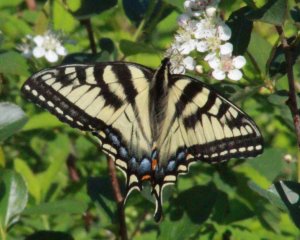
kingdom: Animalia
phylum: Arthropoda
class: Insecta
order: Lepidoptera
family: Papilionidae
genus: Pterourus
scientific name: Pterourus canadensis
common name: Canadian Tiger Swallowtail
